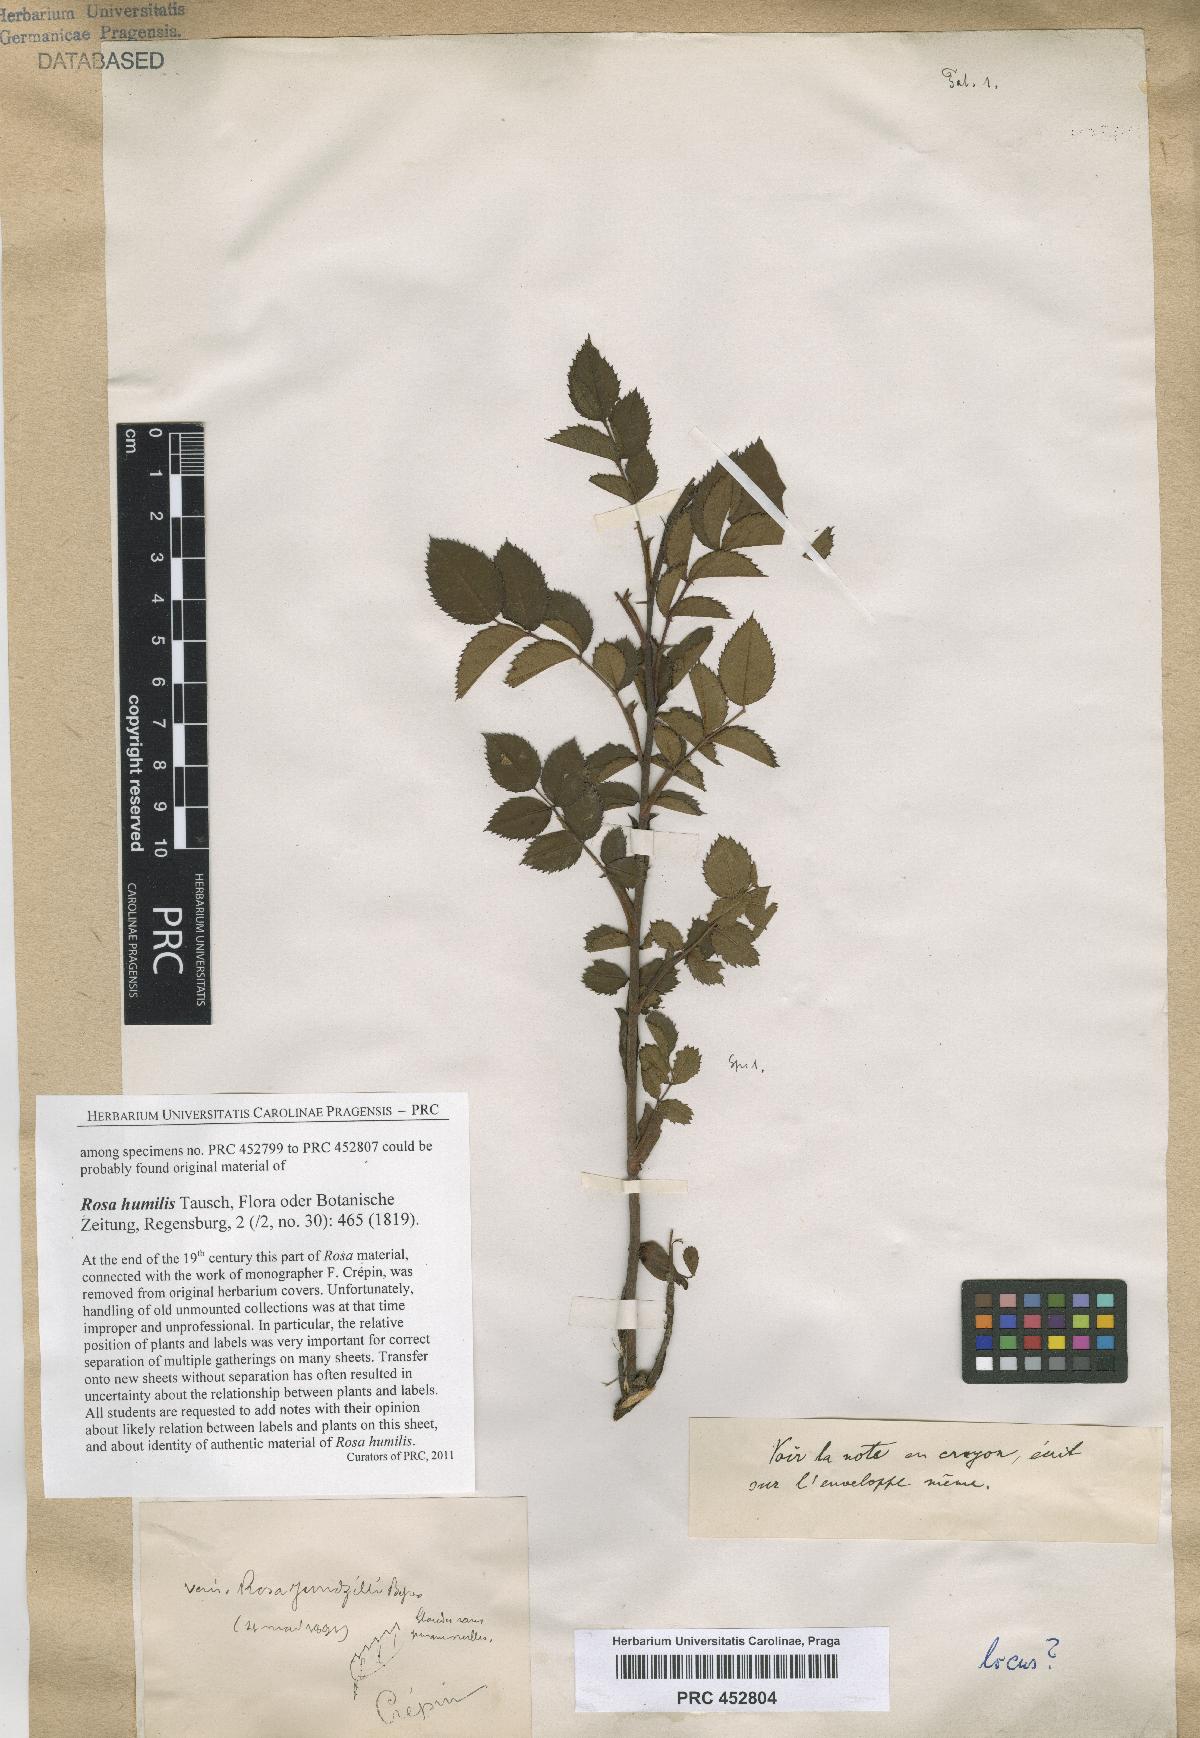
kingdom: Plantae
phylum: Tracheophyta
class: Magnoliopsida
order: Rosales
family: Rosaceae
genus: Rosa
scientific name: Rosa marginata
